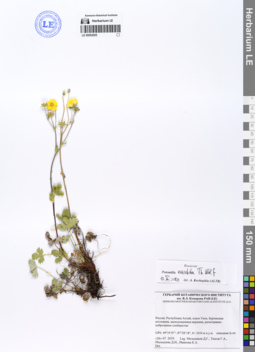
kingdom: Plantae
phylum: Tracheophyta
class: Magnoliopsida
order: Rosales
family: Rosaceae
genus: Potentilla
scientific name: Potentilla evestita
